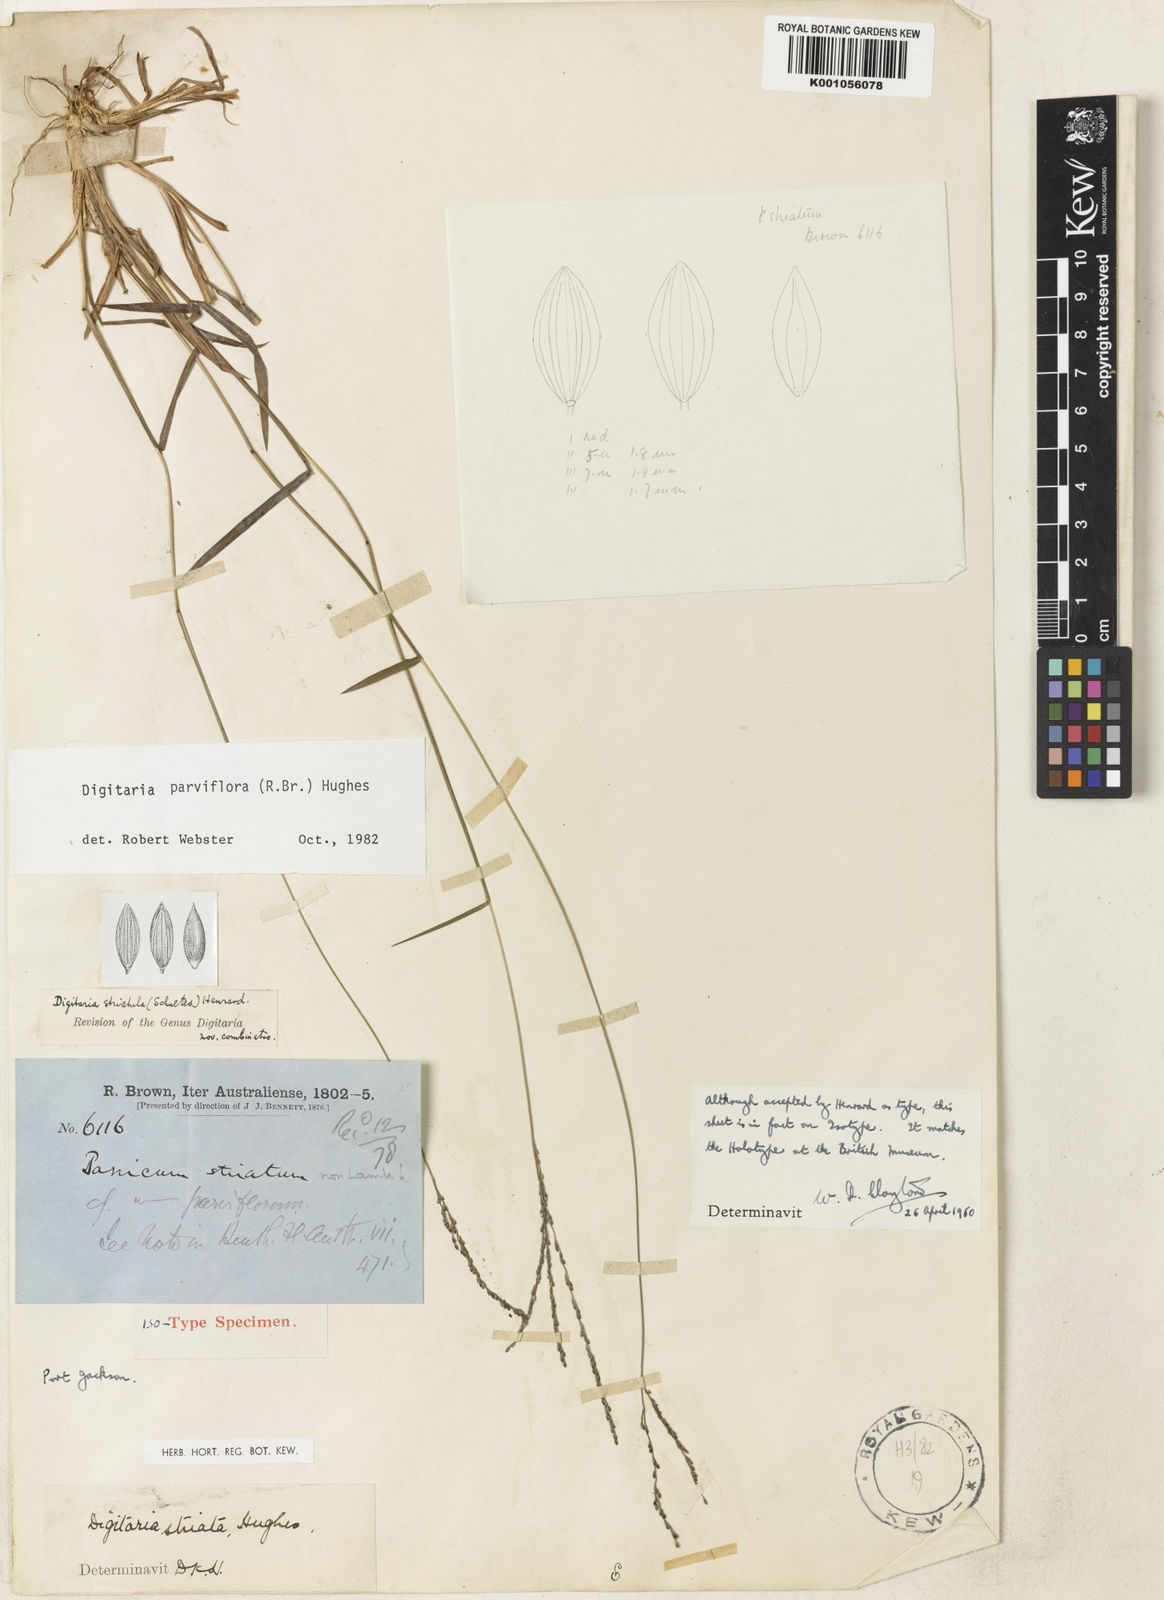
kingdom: Plantae
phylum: Tracheophyta
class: Liliopsida
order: Poales
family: Poaceae
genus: Digitaria
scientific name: Digitaria parviflora
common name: Small-flower finger grass
